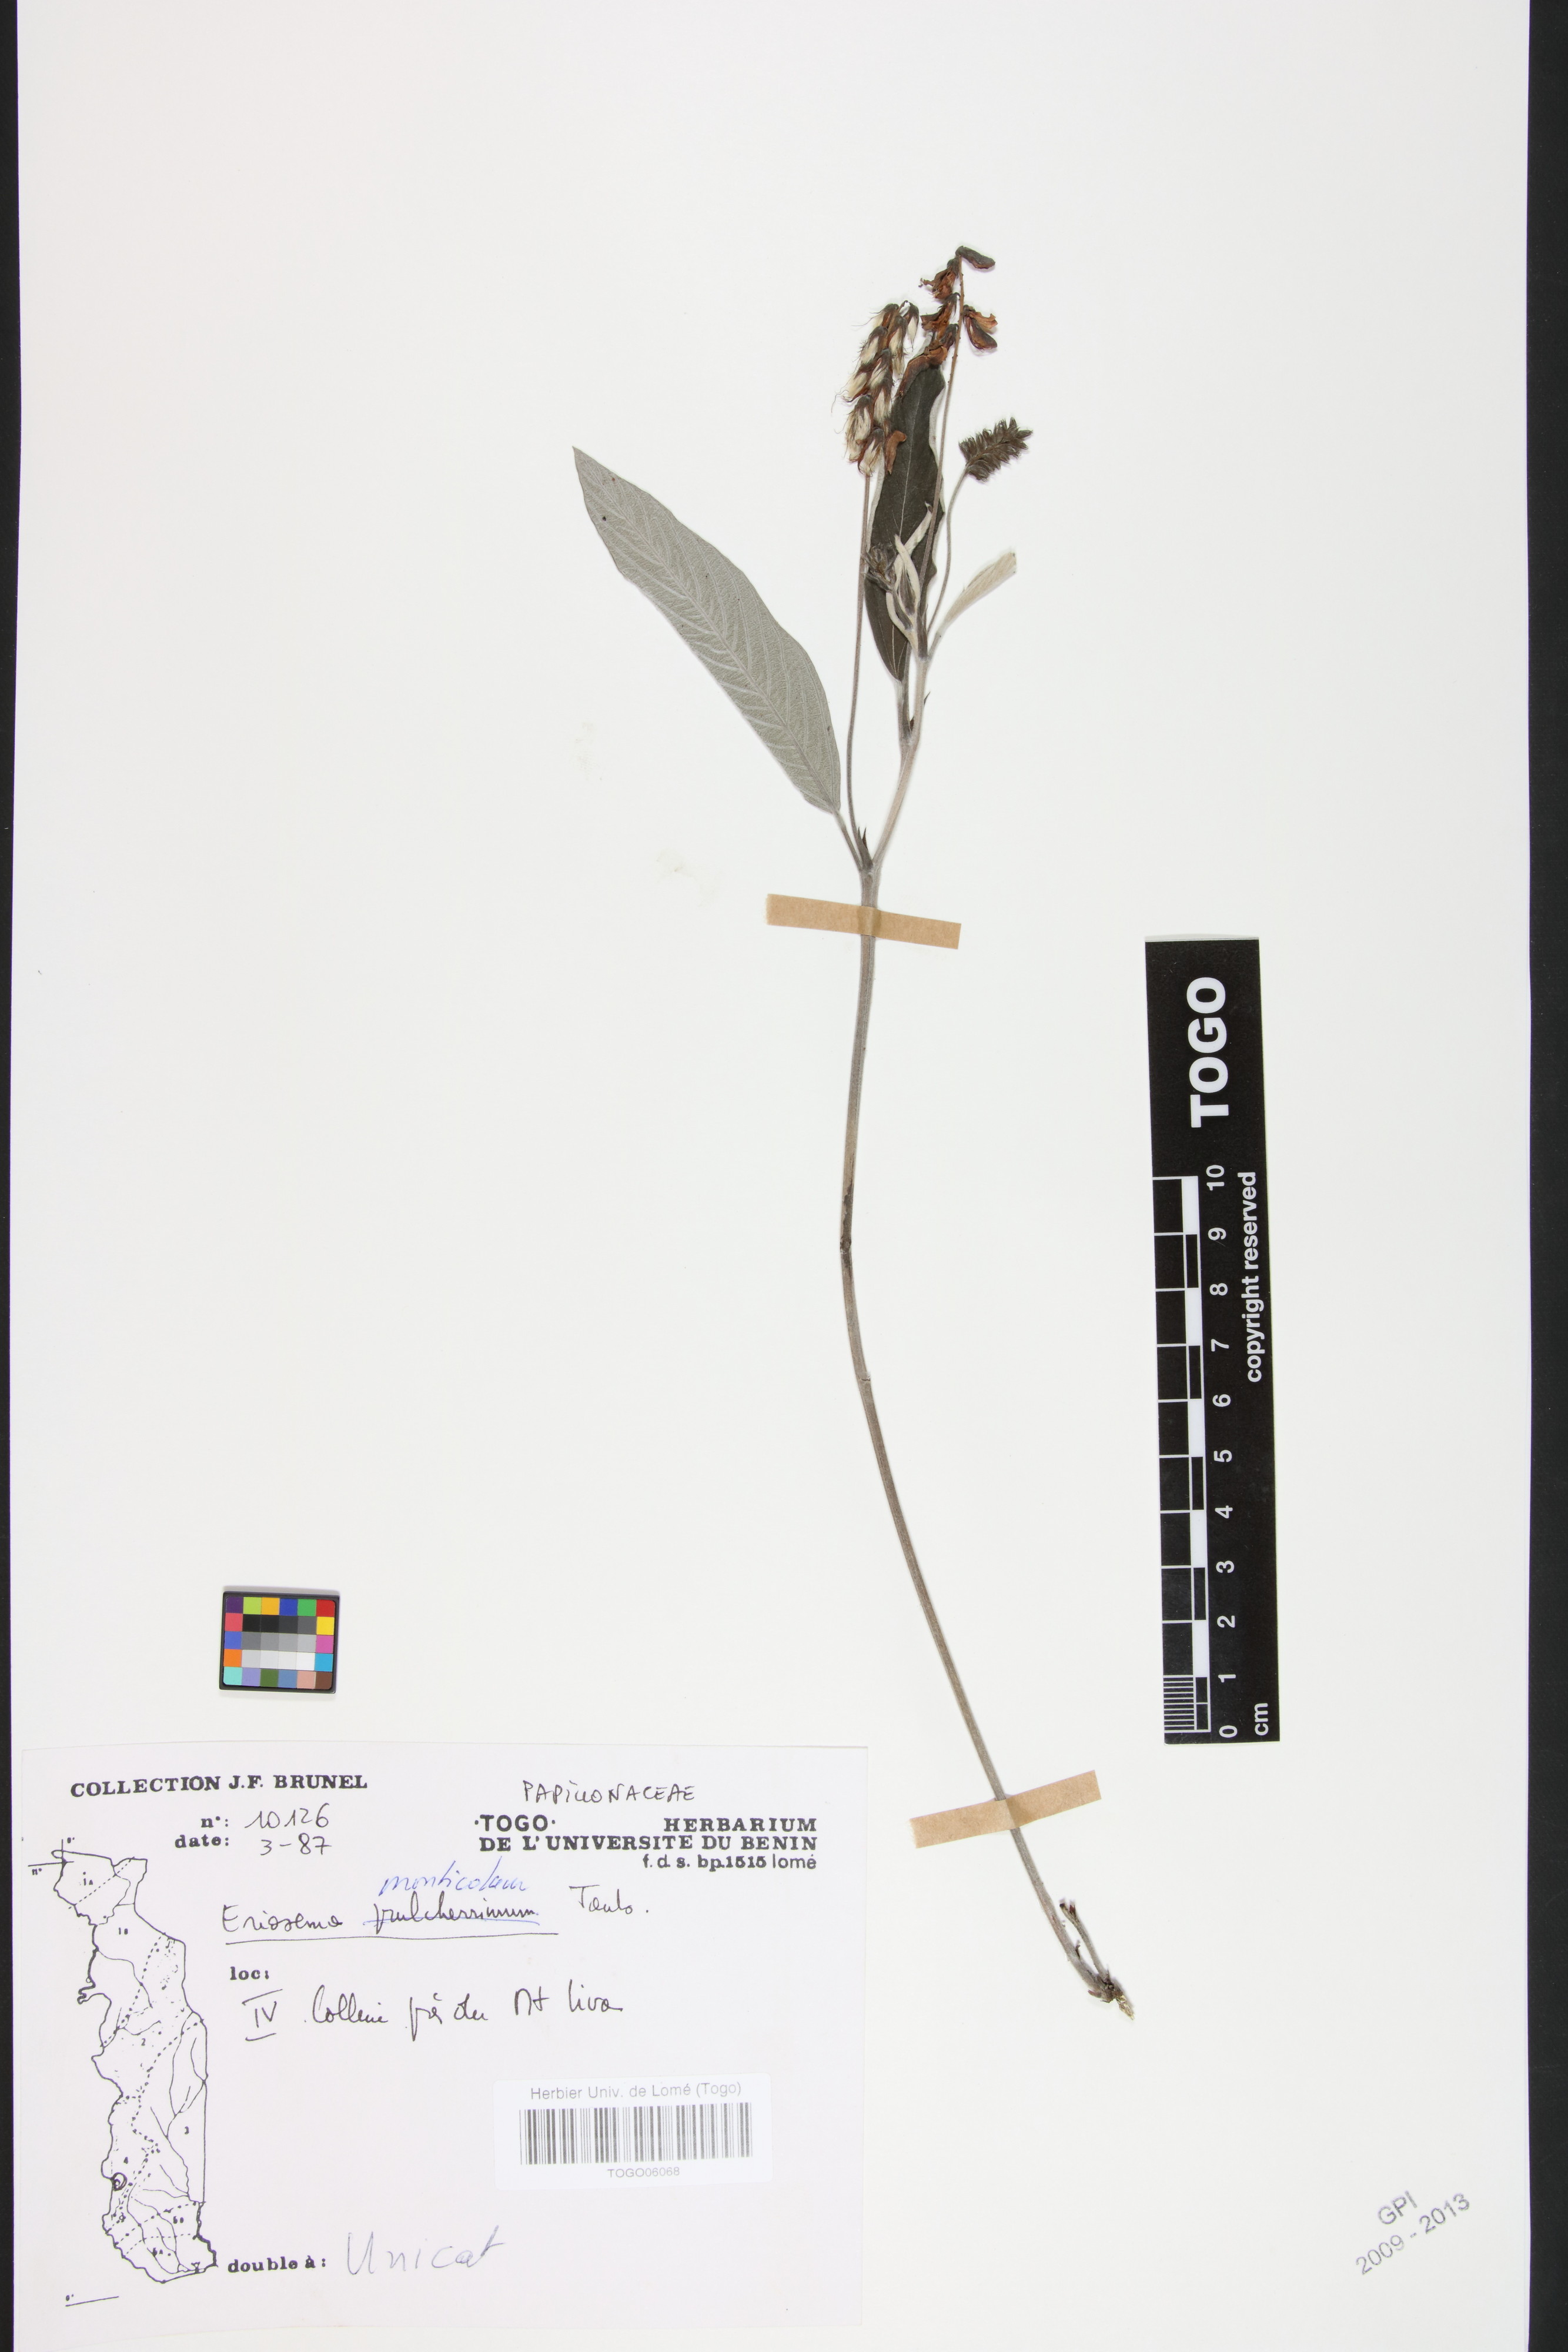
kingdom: Plantae
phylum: Tracheophyta
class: Magnoliopsida
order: Fabales
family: Fabaceae
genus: Eriosema
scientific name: Eriosema monticola
